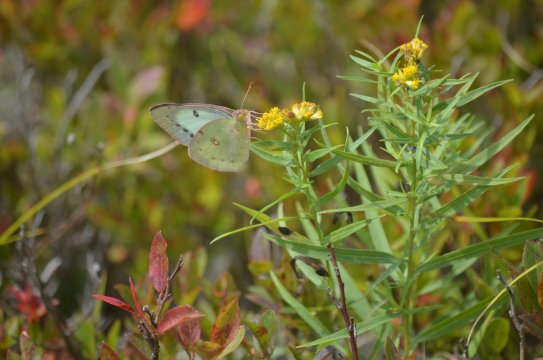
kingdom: Animalia
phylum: Arthropoda
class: Insecta
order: Lepidoptera
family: Pieridae
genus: Colias
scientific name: Colias philodice
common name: Clouded Sulphur
